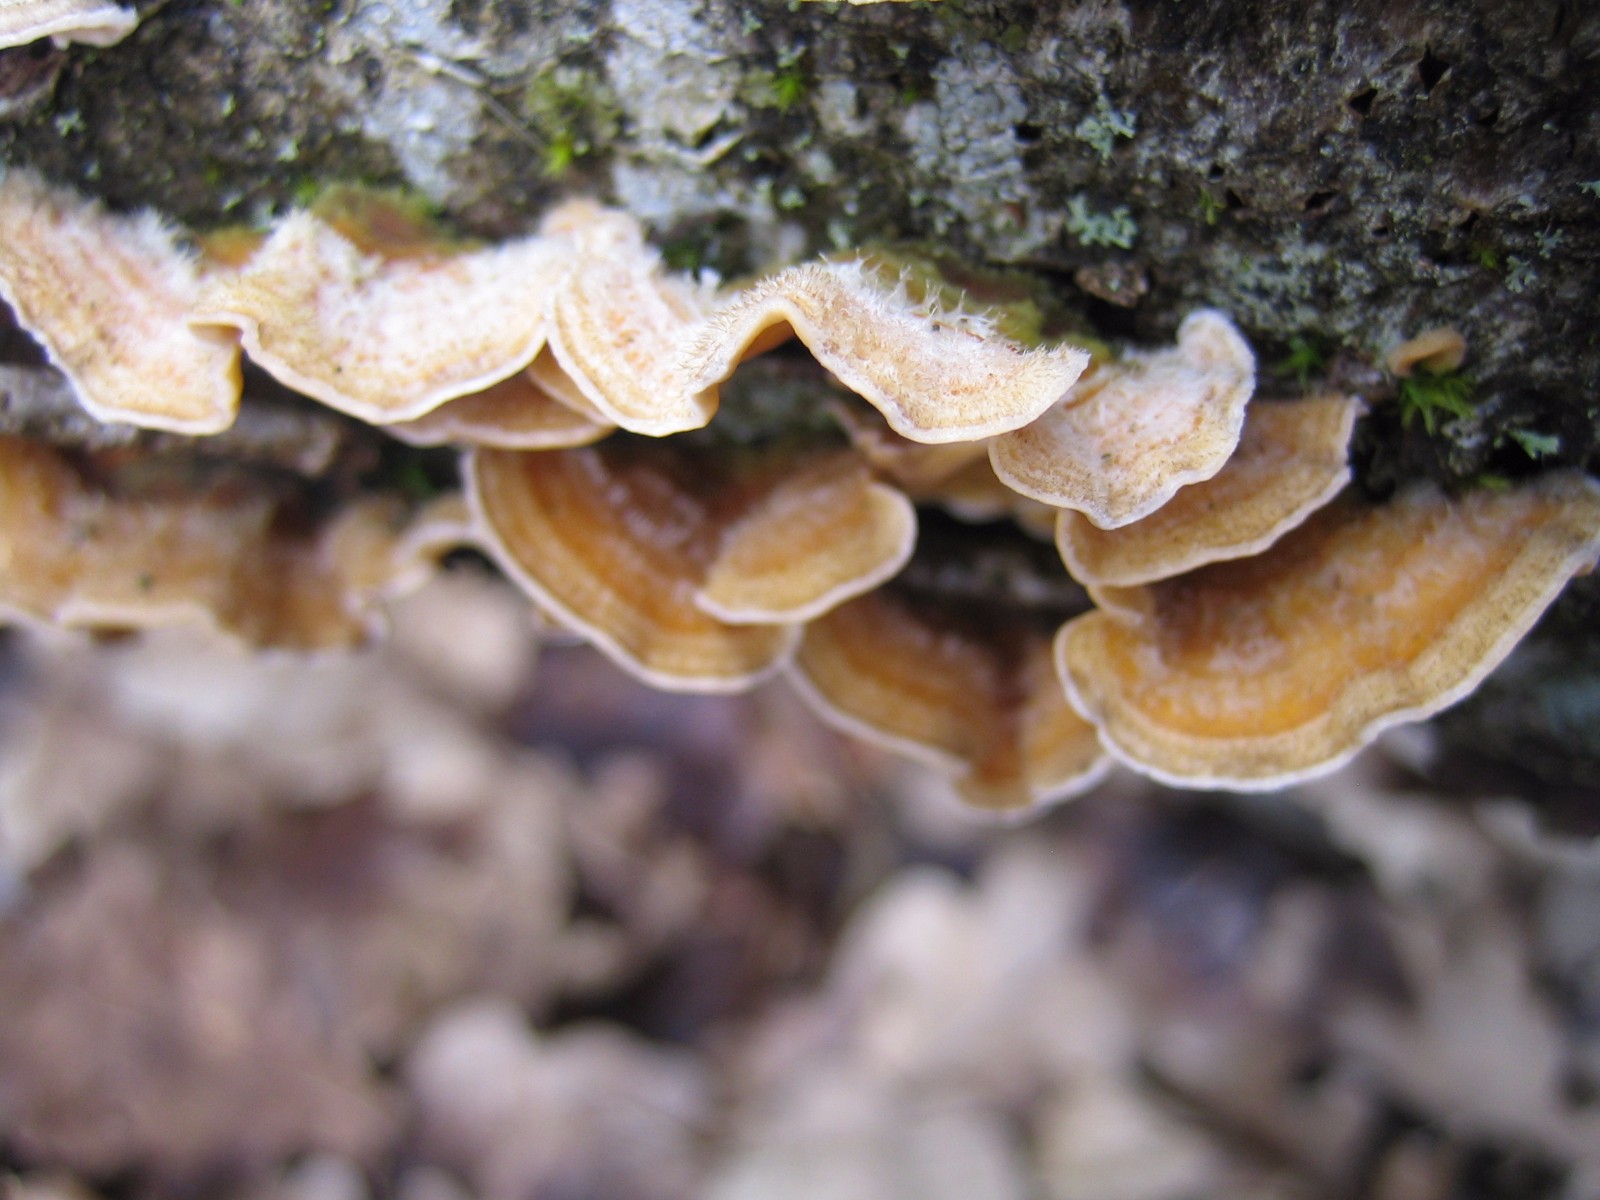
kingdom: Fungi
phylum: Basidiomycota
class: Agaricomycetes
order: Russulales
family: Stereaceae
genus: Stereum
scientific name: Stereum hirsutum
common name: håret lædersvamp
